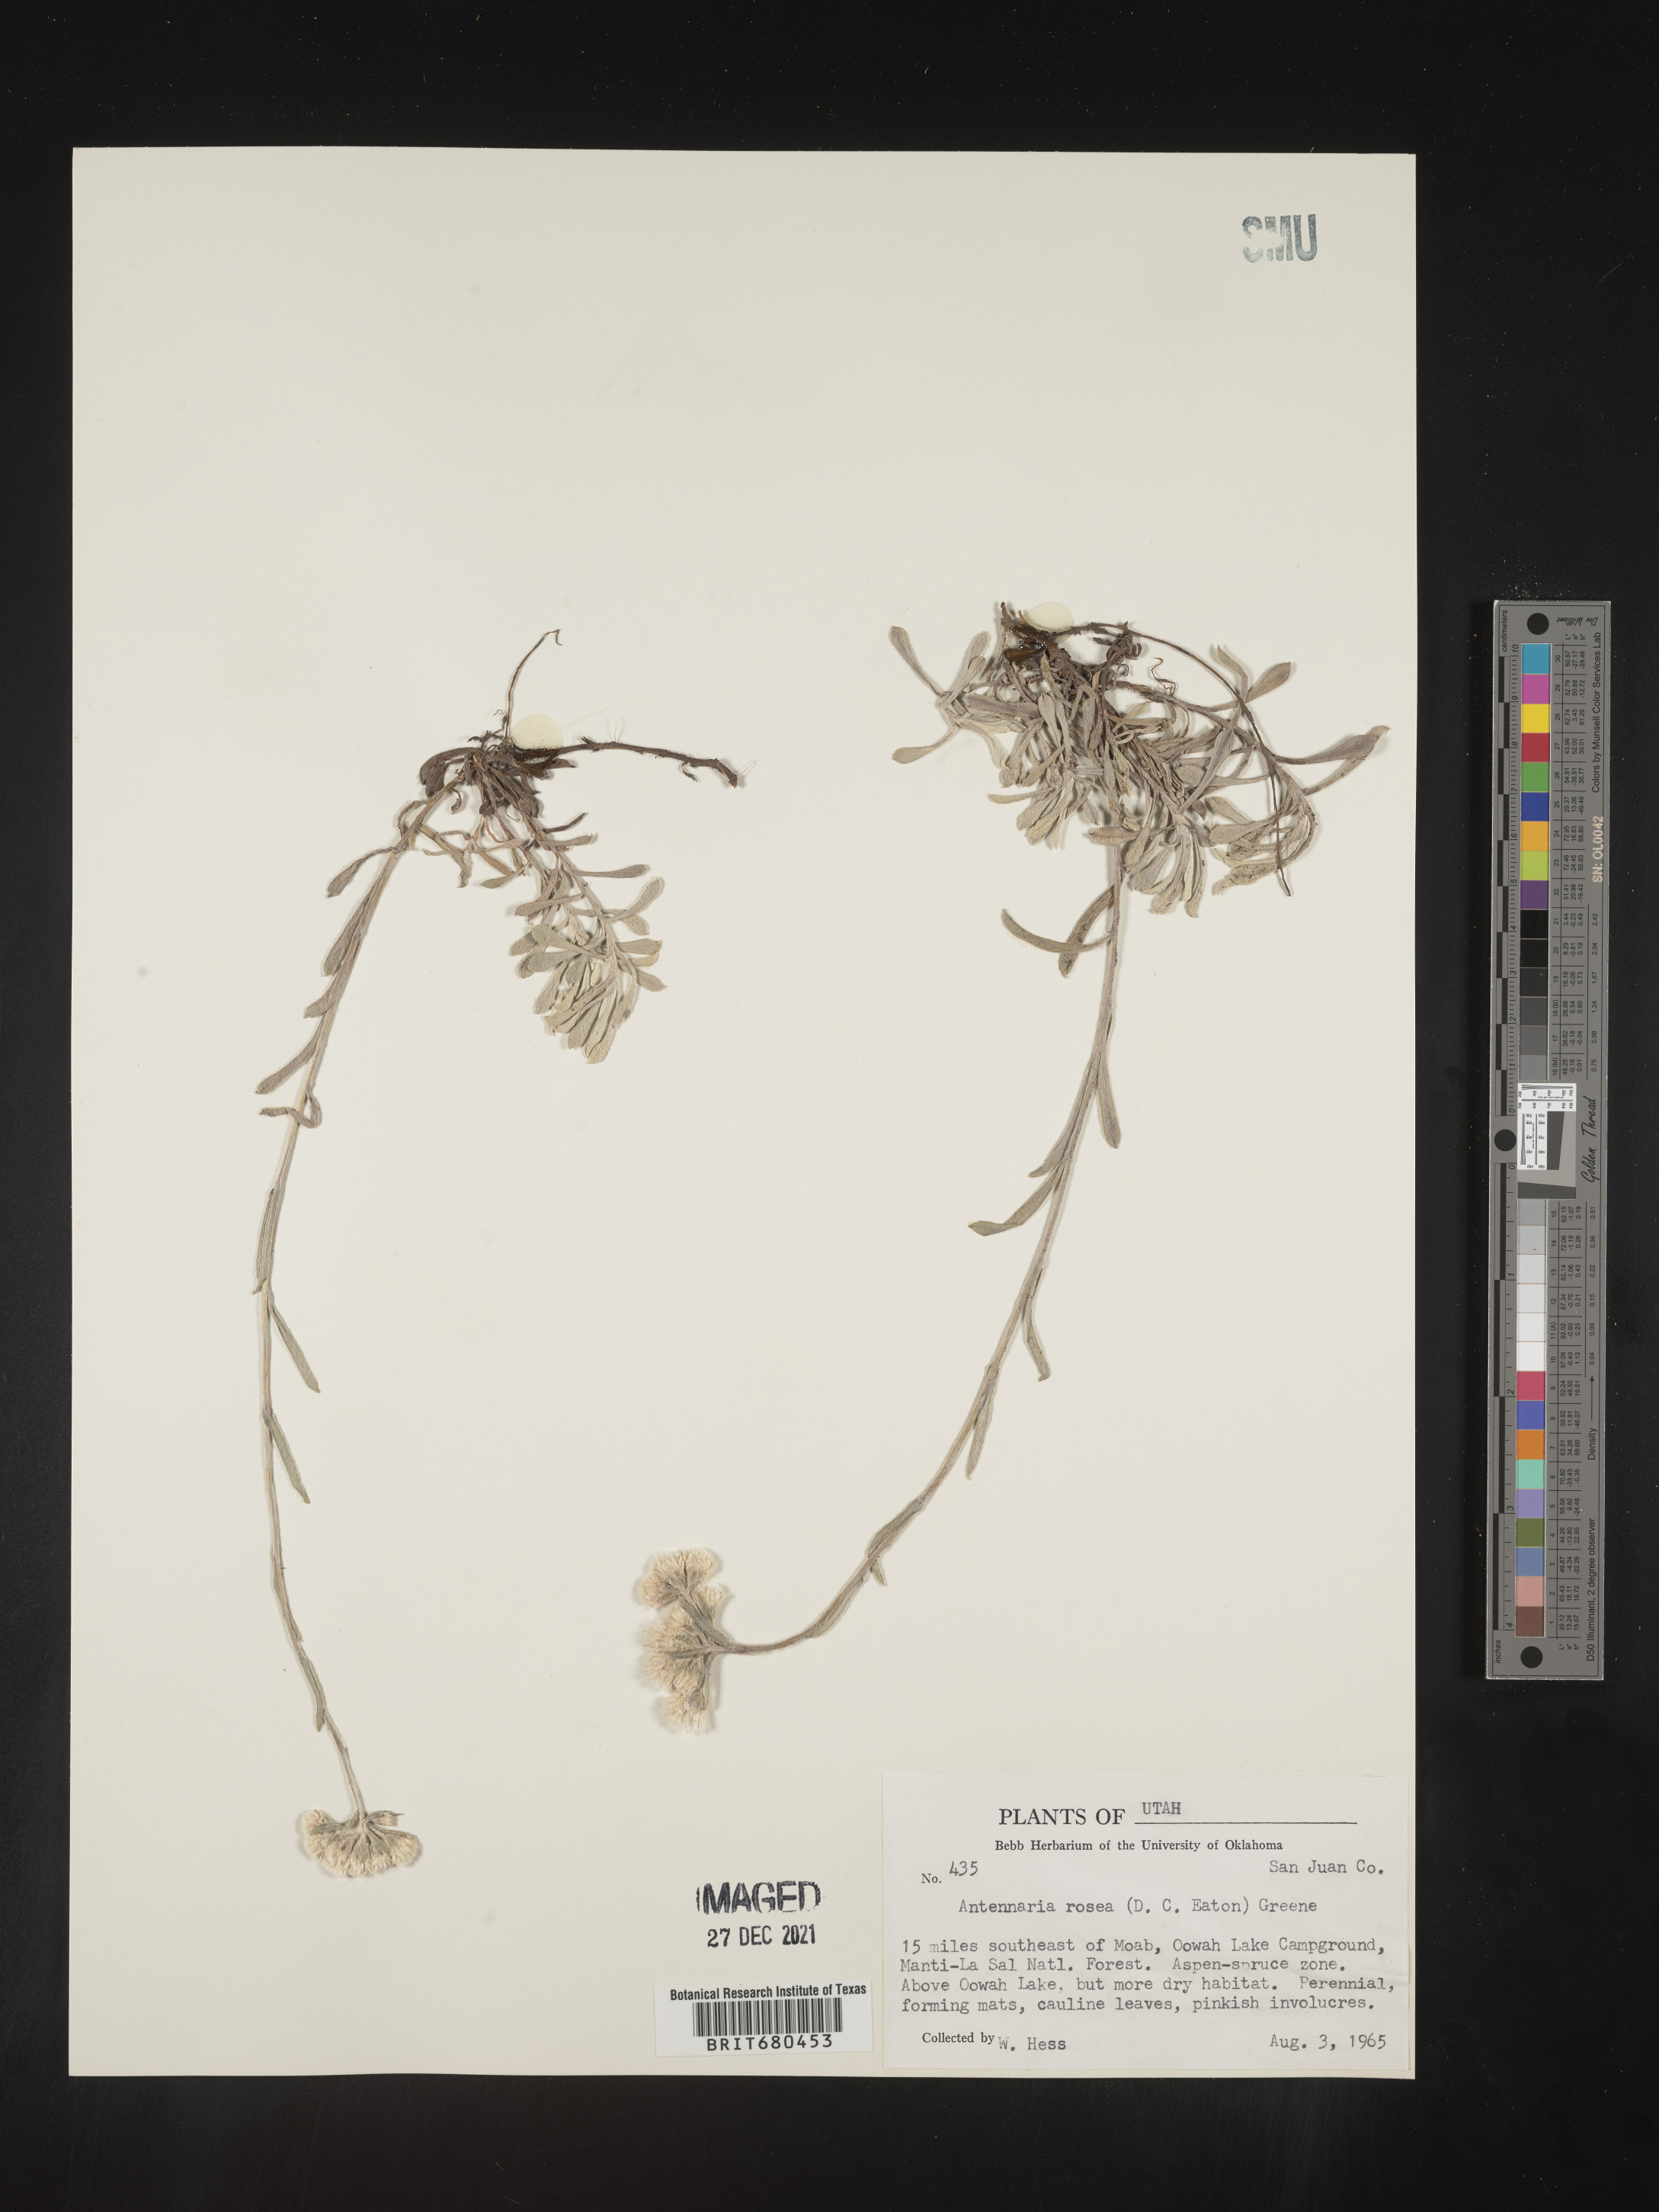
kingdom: Plantae
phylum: Tracheophyta
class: Magnoliopsida
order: Asterales
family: Asteraceae
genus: Antennaria
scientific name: Antennaria rosea
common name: Rosy pussytoes
